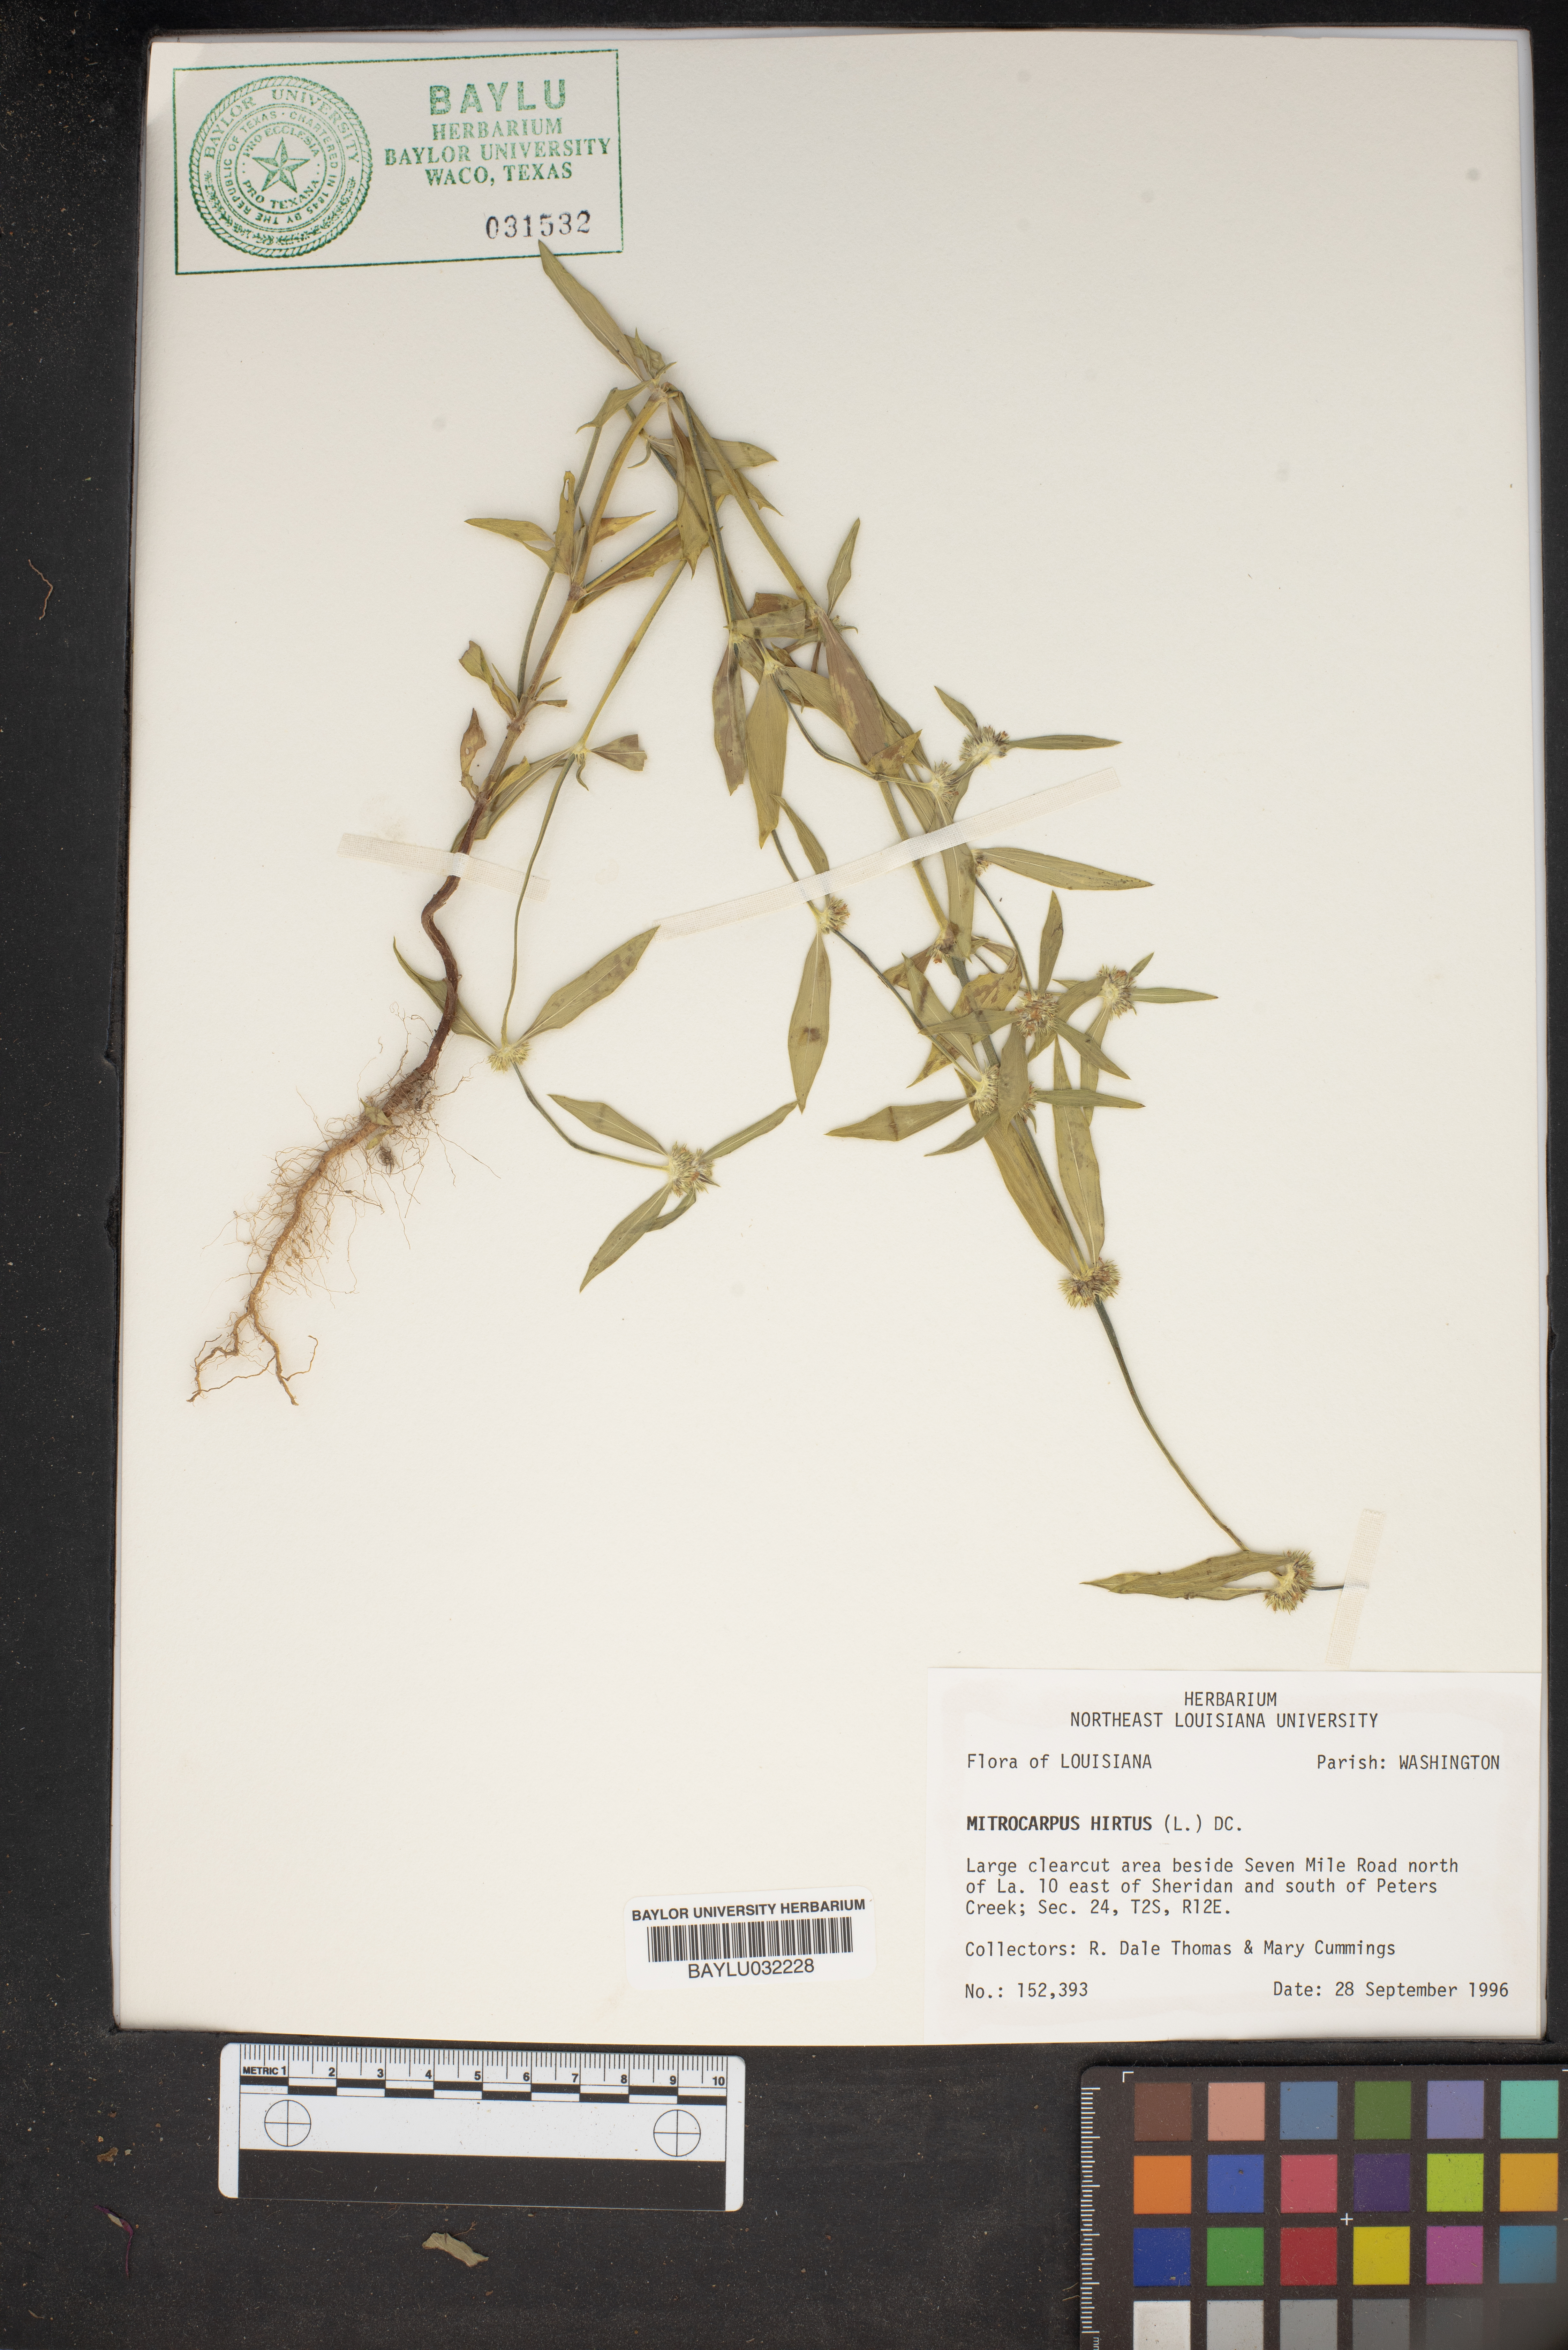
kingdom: Plantae
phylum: Tracheophyta
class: Magnoliopsida
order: Gentianales
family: Rubiaceae
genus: Mitracarpus
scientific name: Mitracarpus hirtus
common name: Tropical girdlepod
